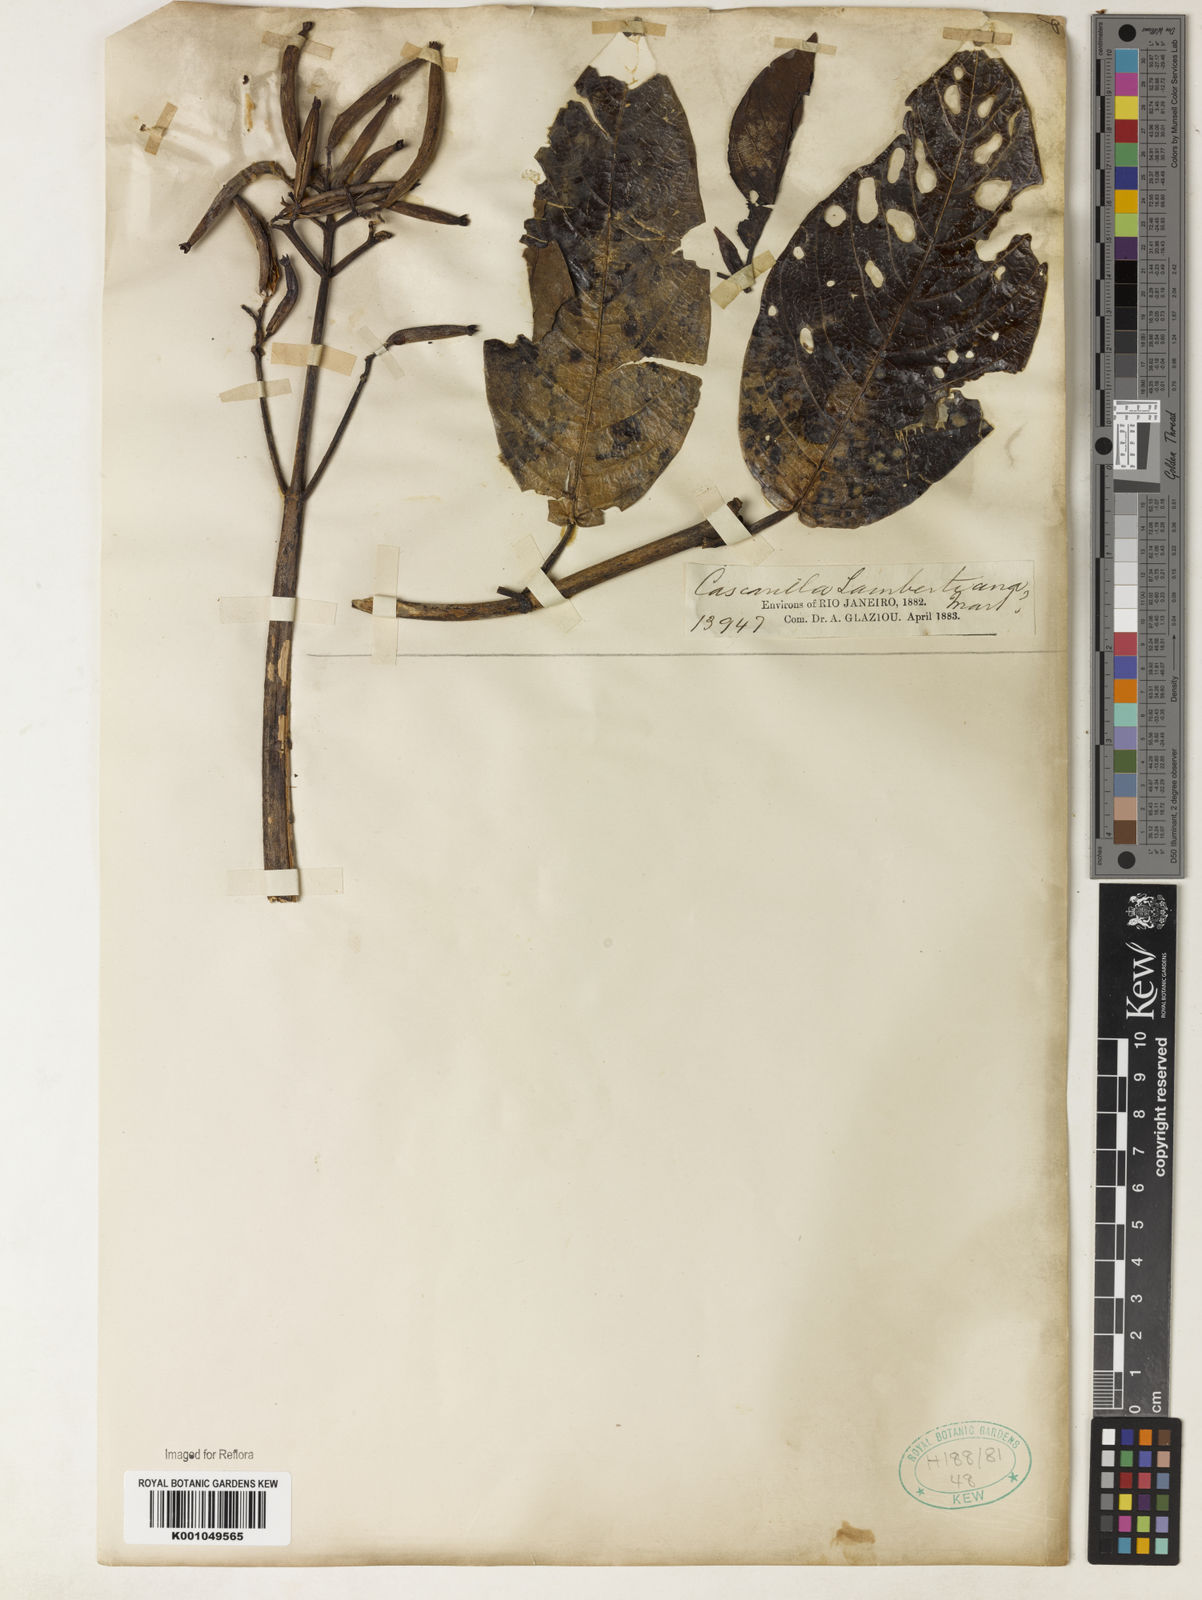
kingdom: Plantae
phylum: Tracheophyta
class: Magnoliopsida
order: Gentianales
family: Rubiaceae
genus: Ladenbergia
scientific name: Ladenbergia lambertiana
